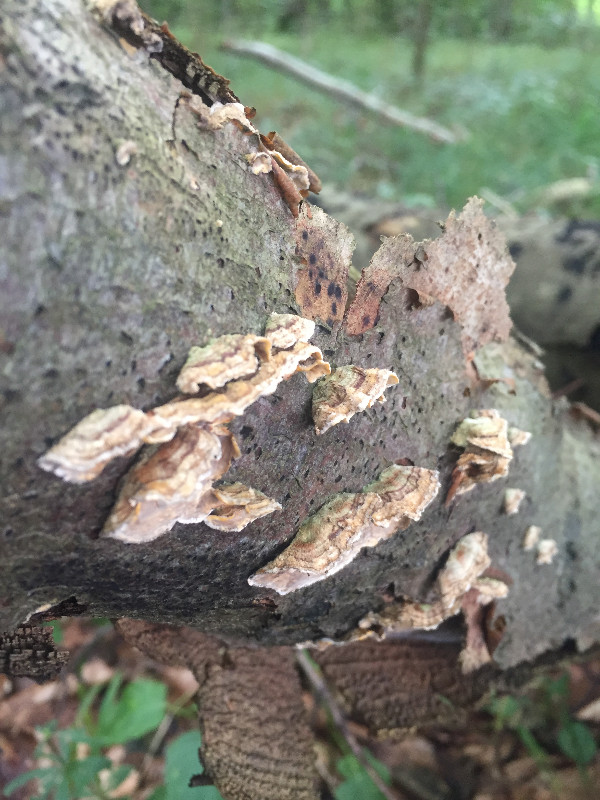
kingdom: Fungi
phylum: Basidiomycota
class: Agaricomycetes
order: Russulales
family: Stereaceae
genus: Stereum
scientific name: Stereum hirsutum
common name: håret lædersvamp
